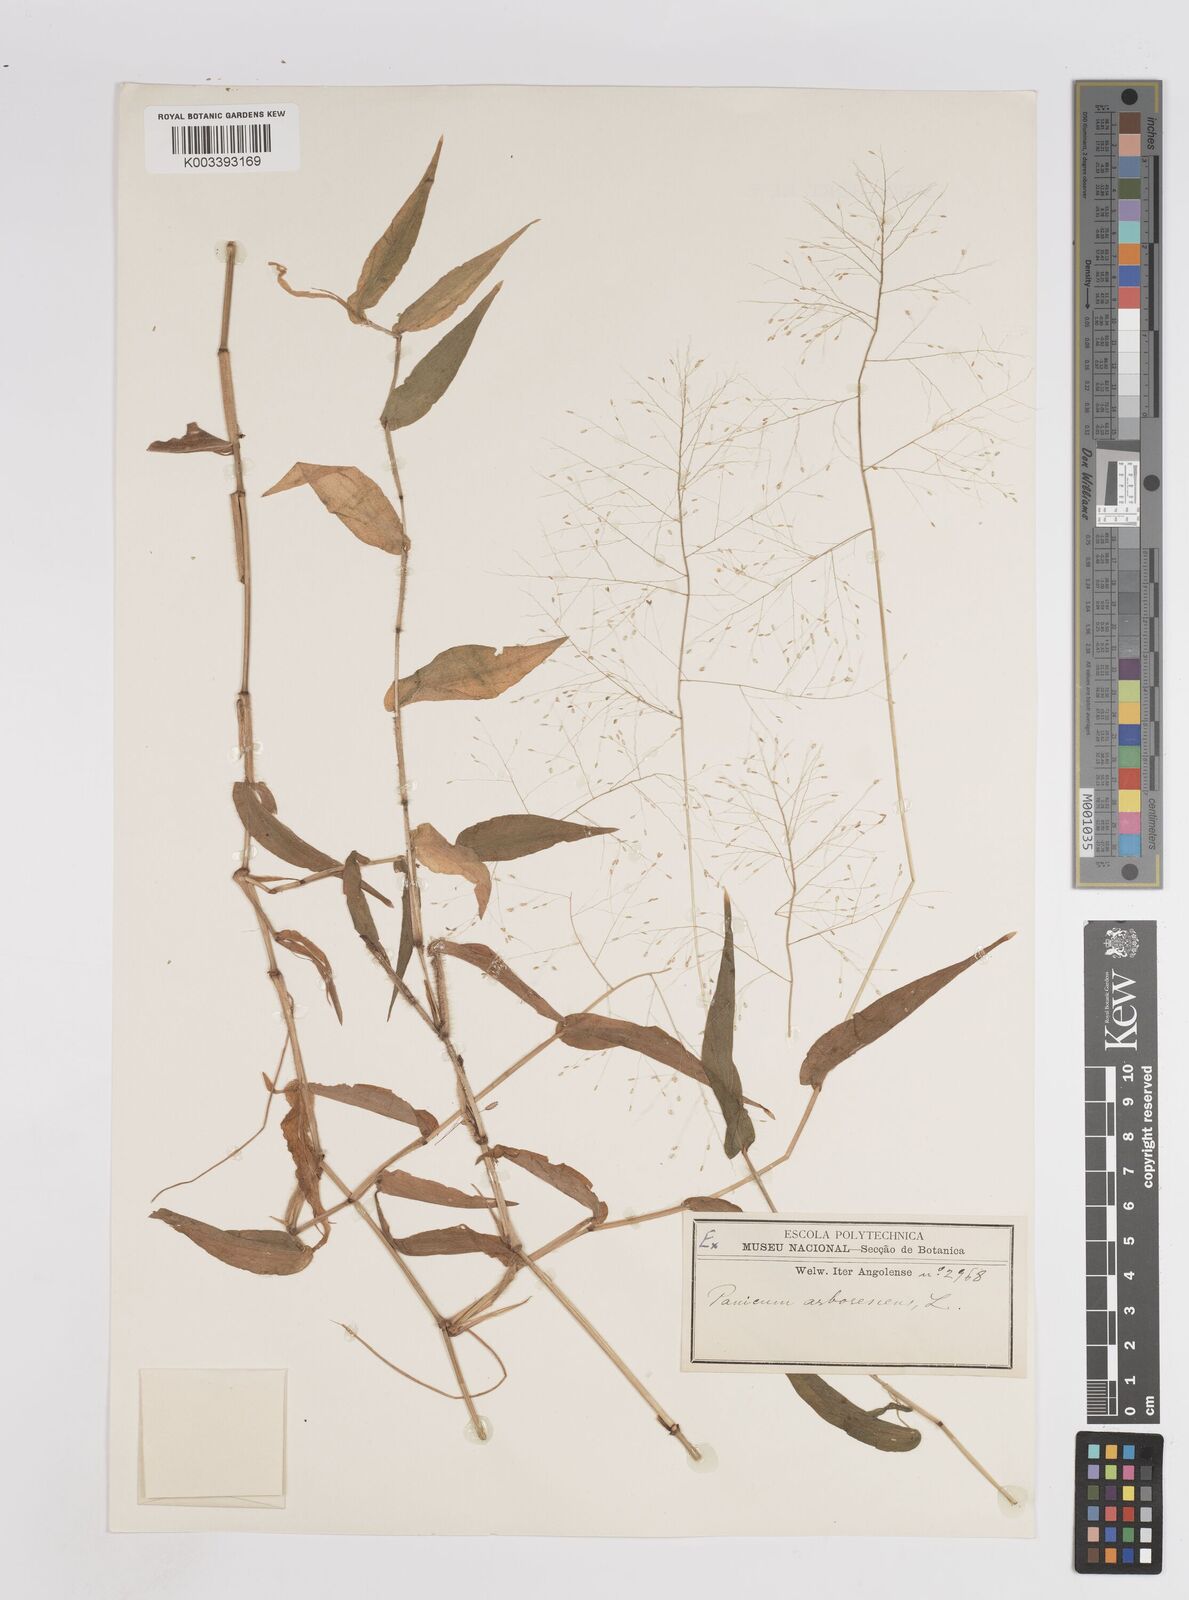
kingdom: Plantae
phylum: Tracheophyta
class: Liliopsida
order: Poales
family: Poaceae
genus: Panicum
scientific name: Panicum brevifolium
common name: Shortleaf panic grass
